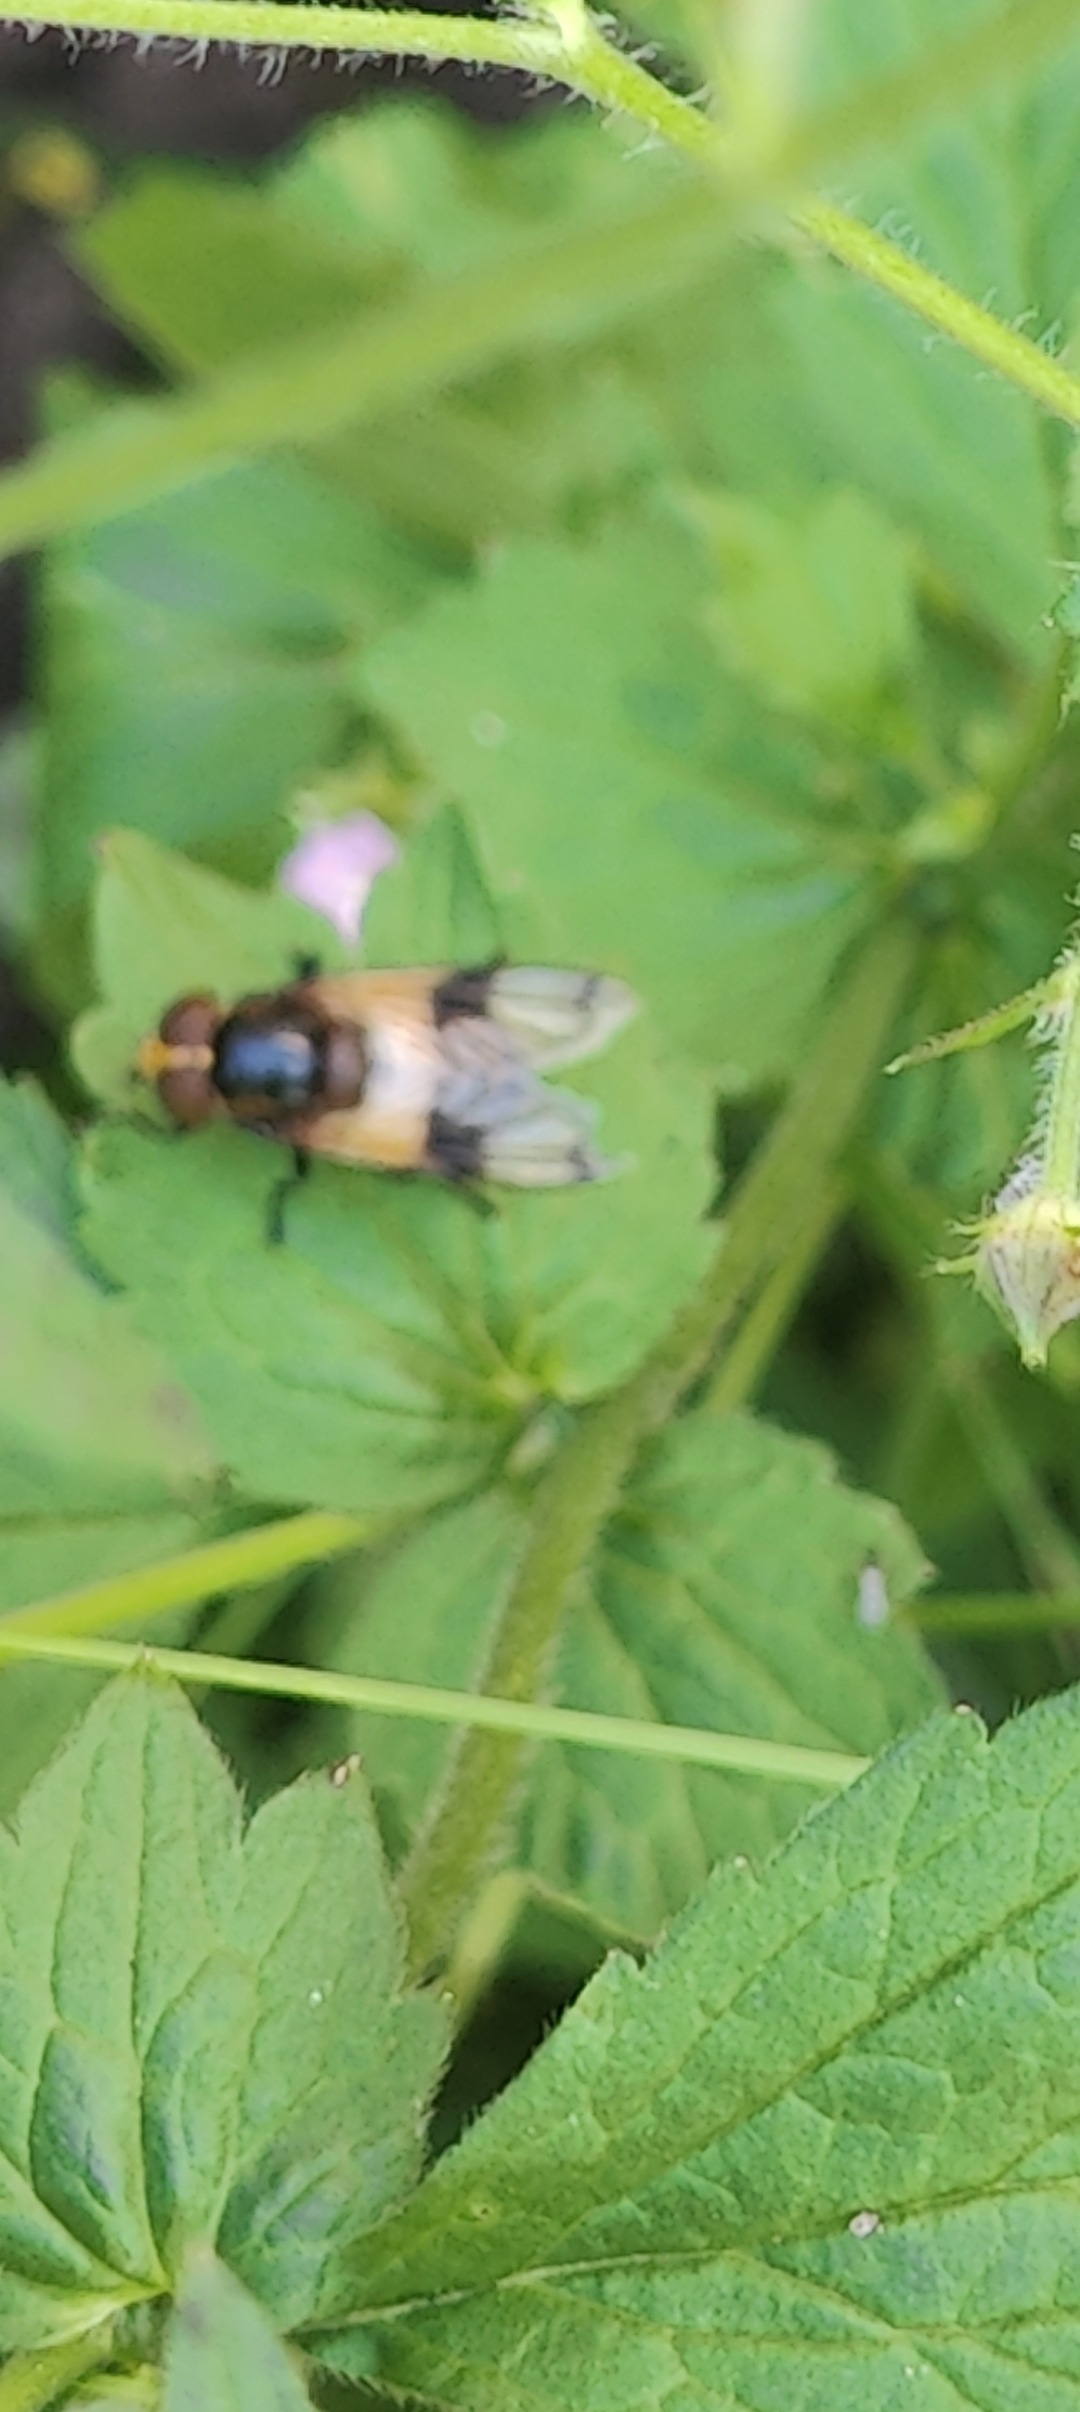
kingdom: Animalia
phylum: Arthropoda
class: Insecta
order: Diptera
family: Syrphidae
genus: Volucella
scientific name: Volucella pellucens
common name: Hvidbåndet humlesvirreflue
